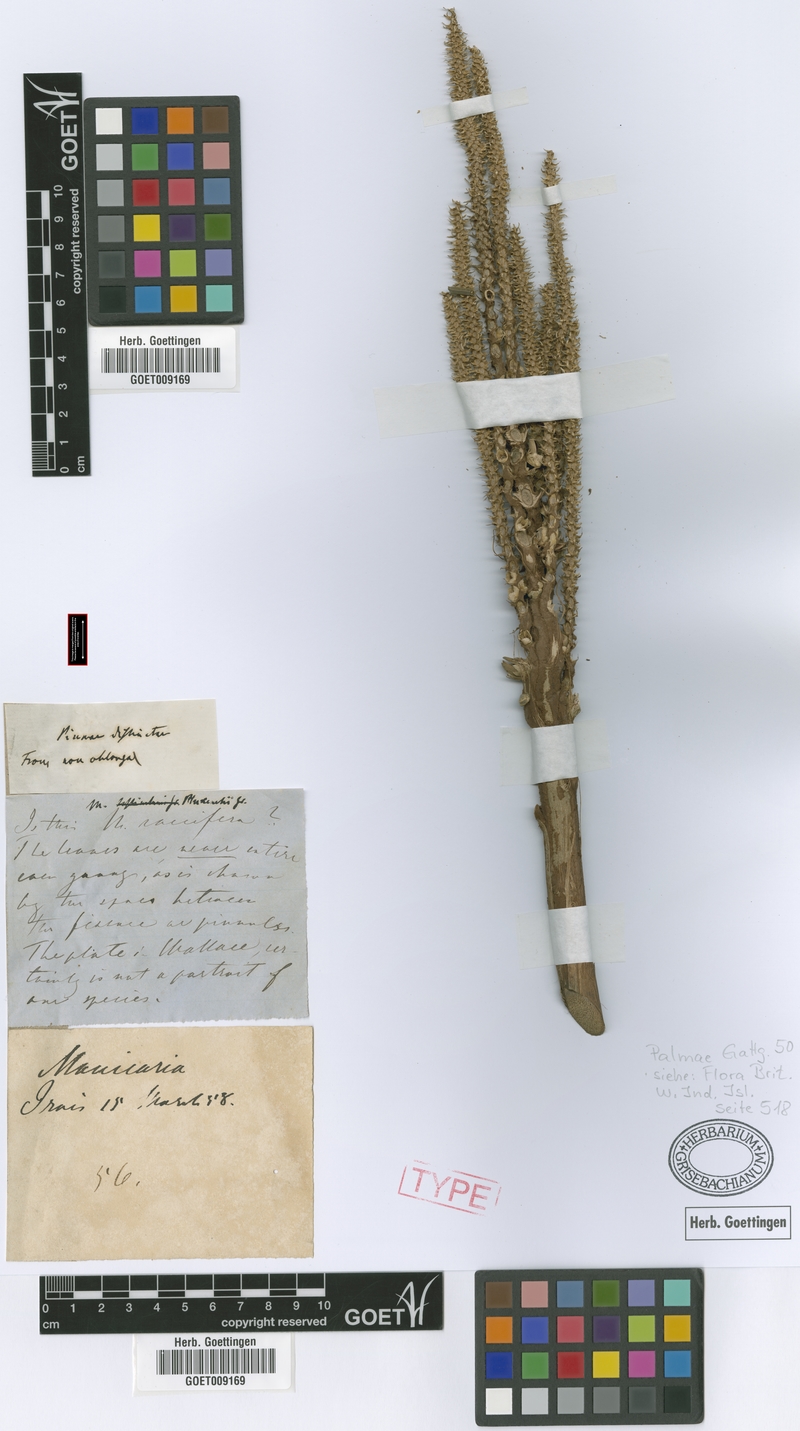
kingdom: Plantae
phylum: Tracheophyta
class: Liliopsida
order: Arecales
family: Arecaceae
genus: Manicaria
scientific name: Manicaria saccifera
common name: Sea coconut
